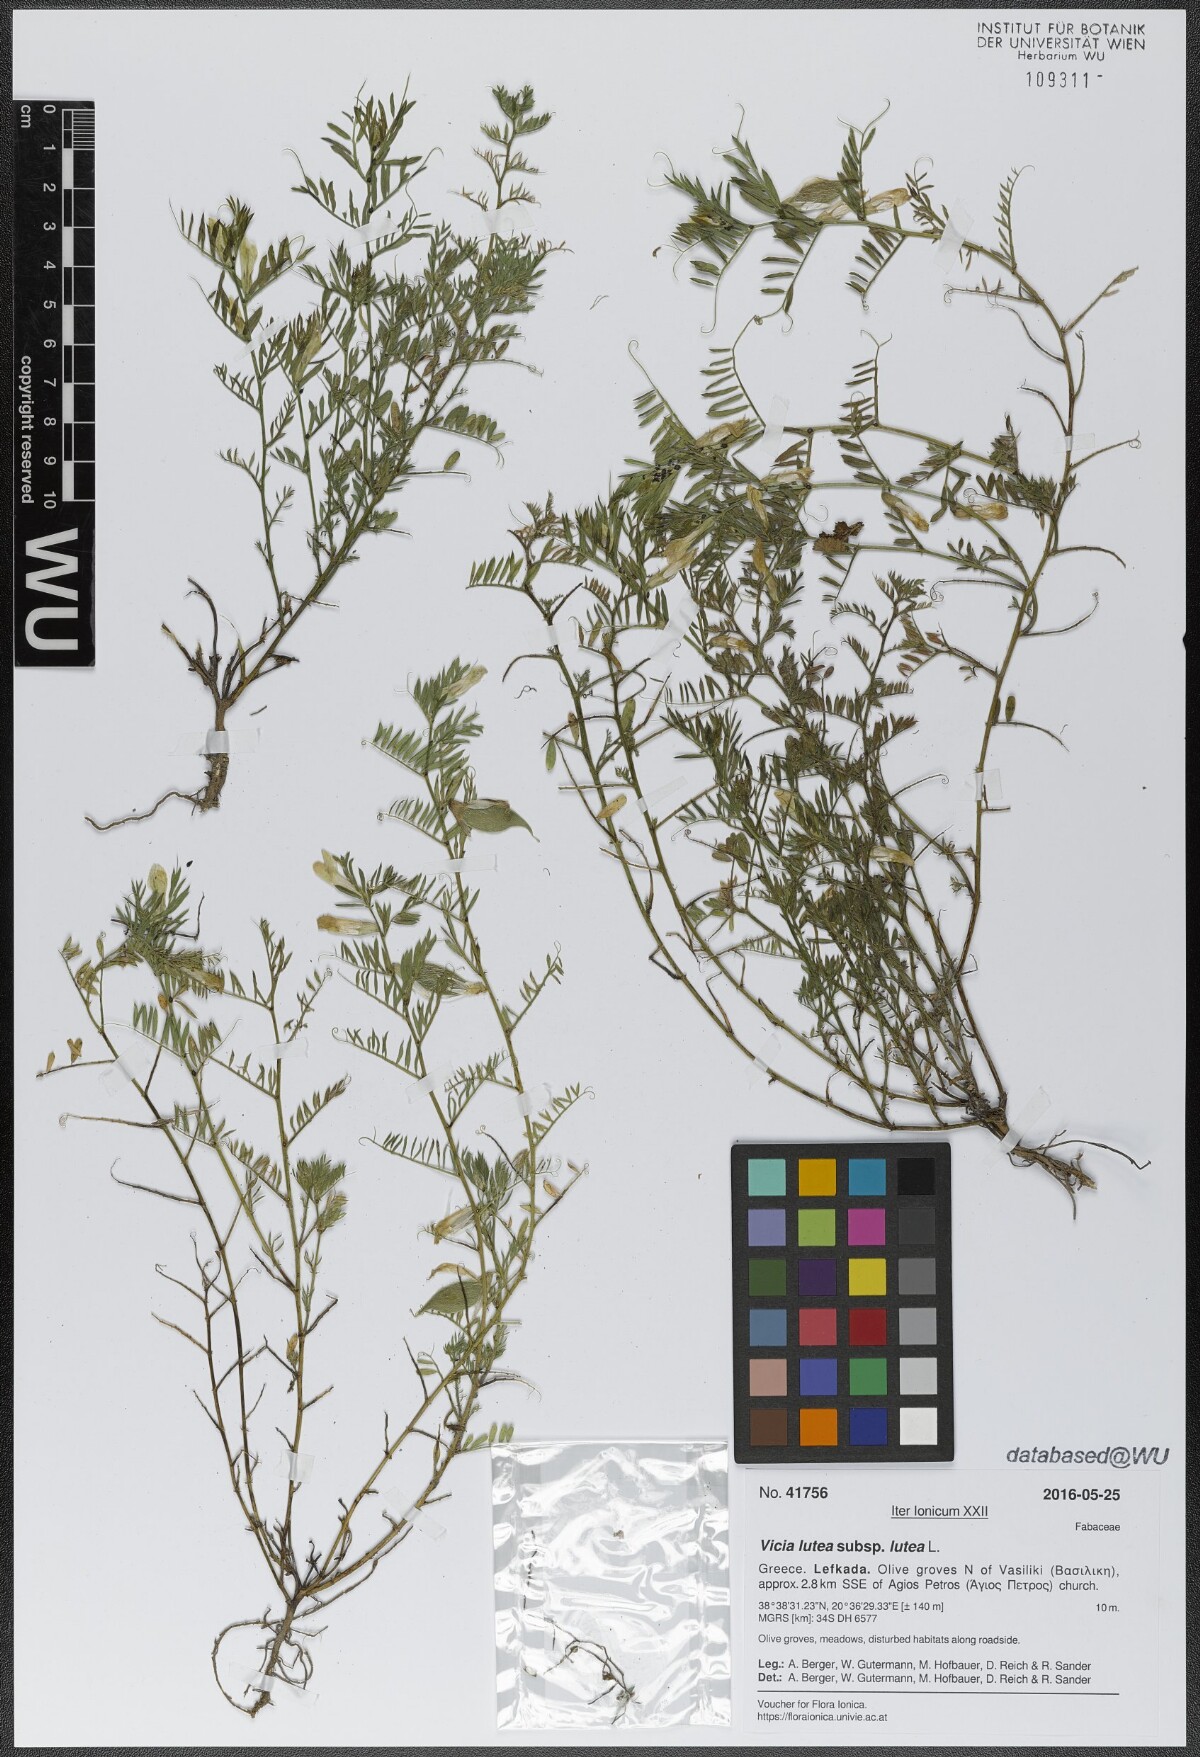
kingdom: Plantae
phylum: Tracheophyta
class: Magnoliopsida
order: Fabales
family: Fabaceae
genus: Vicia
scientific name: Vicia lutea
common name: Smooth yellow vetch
